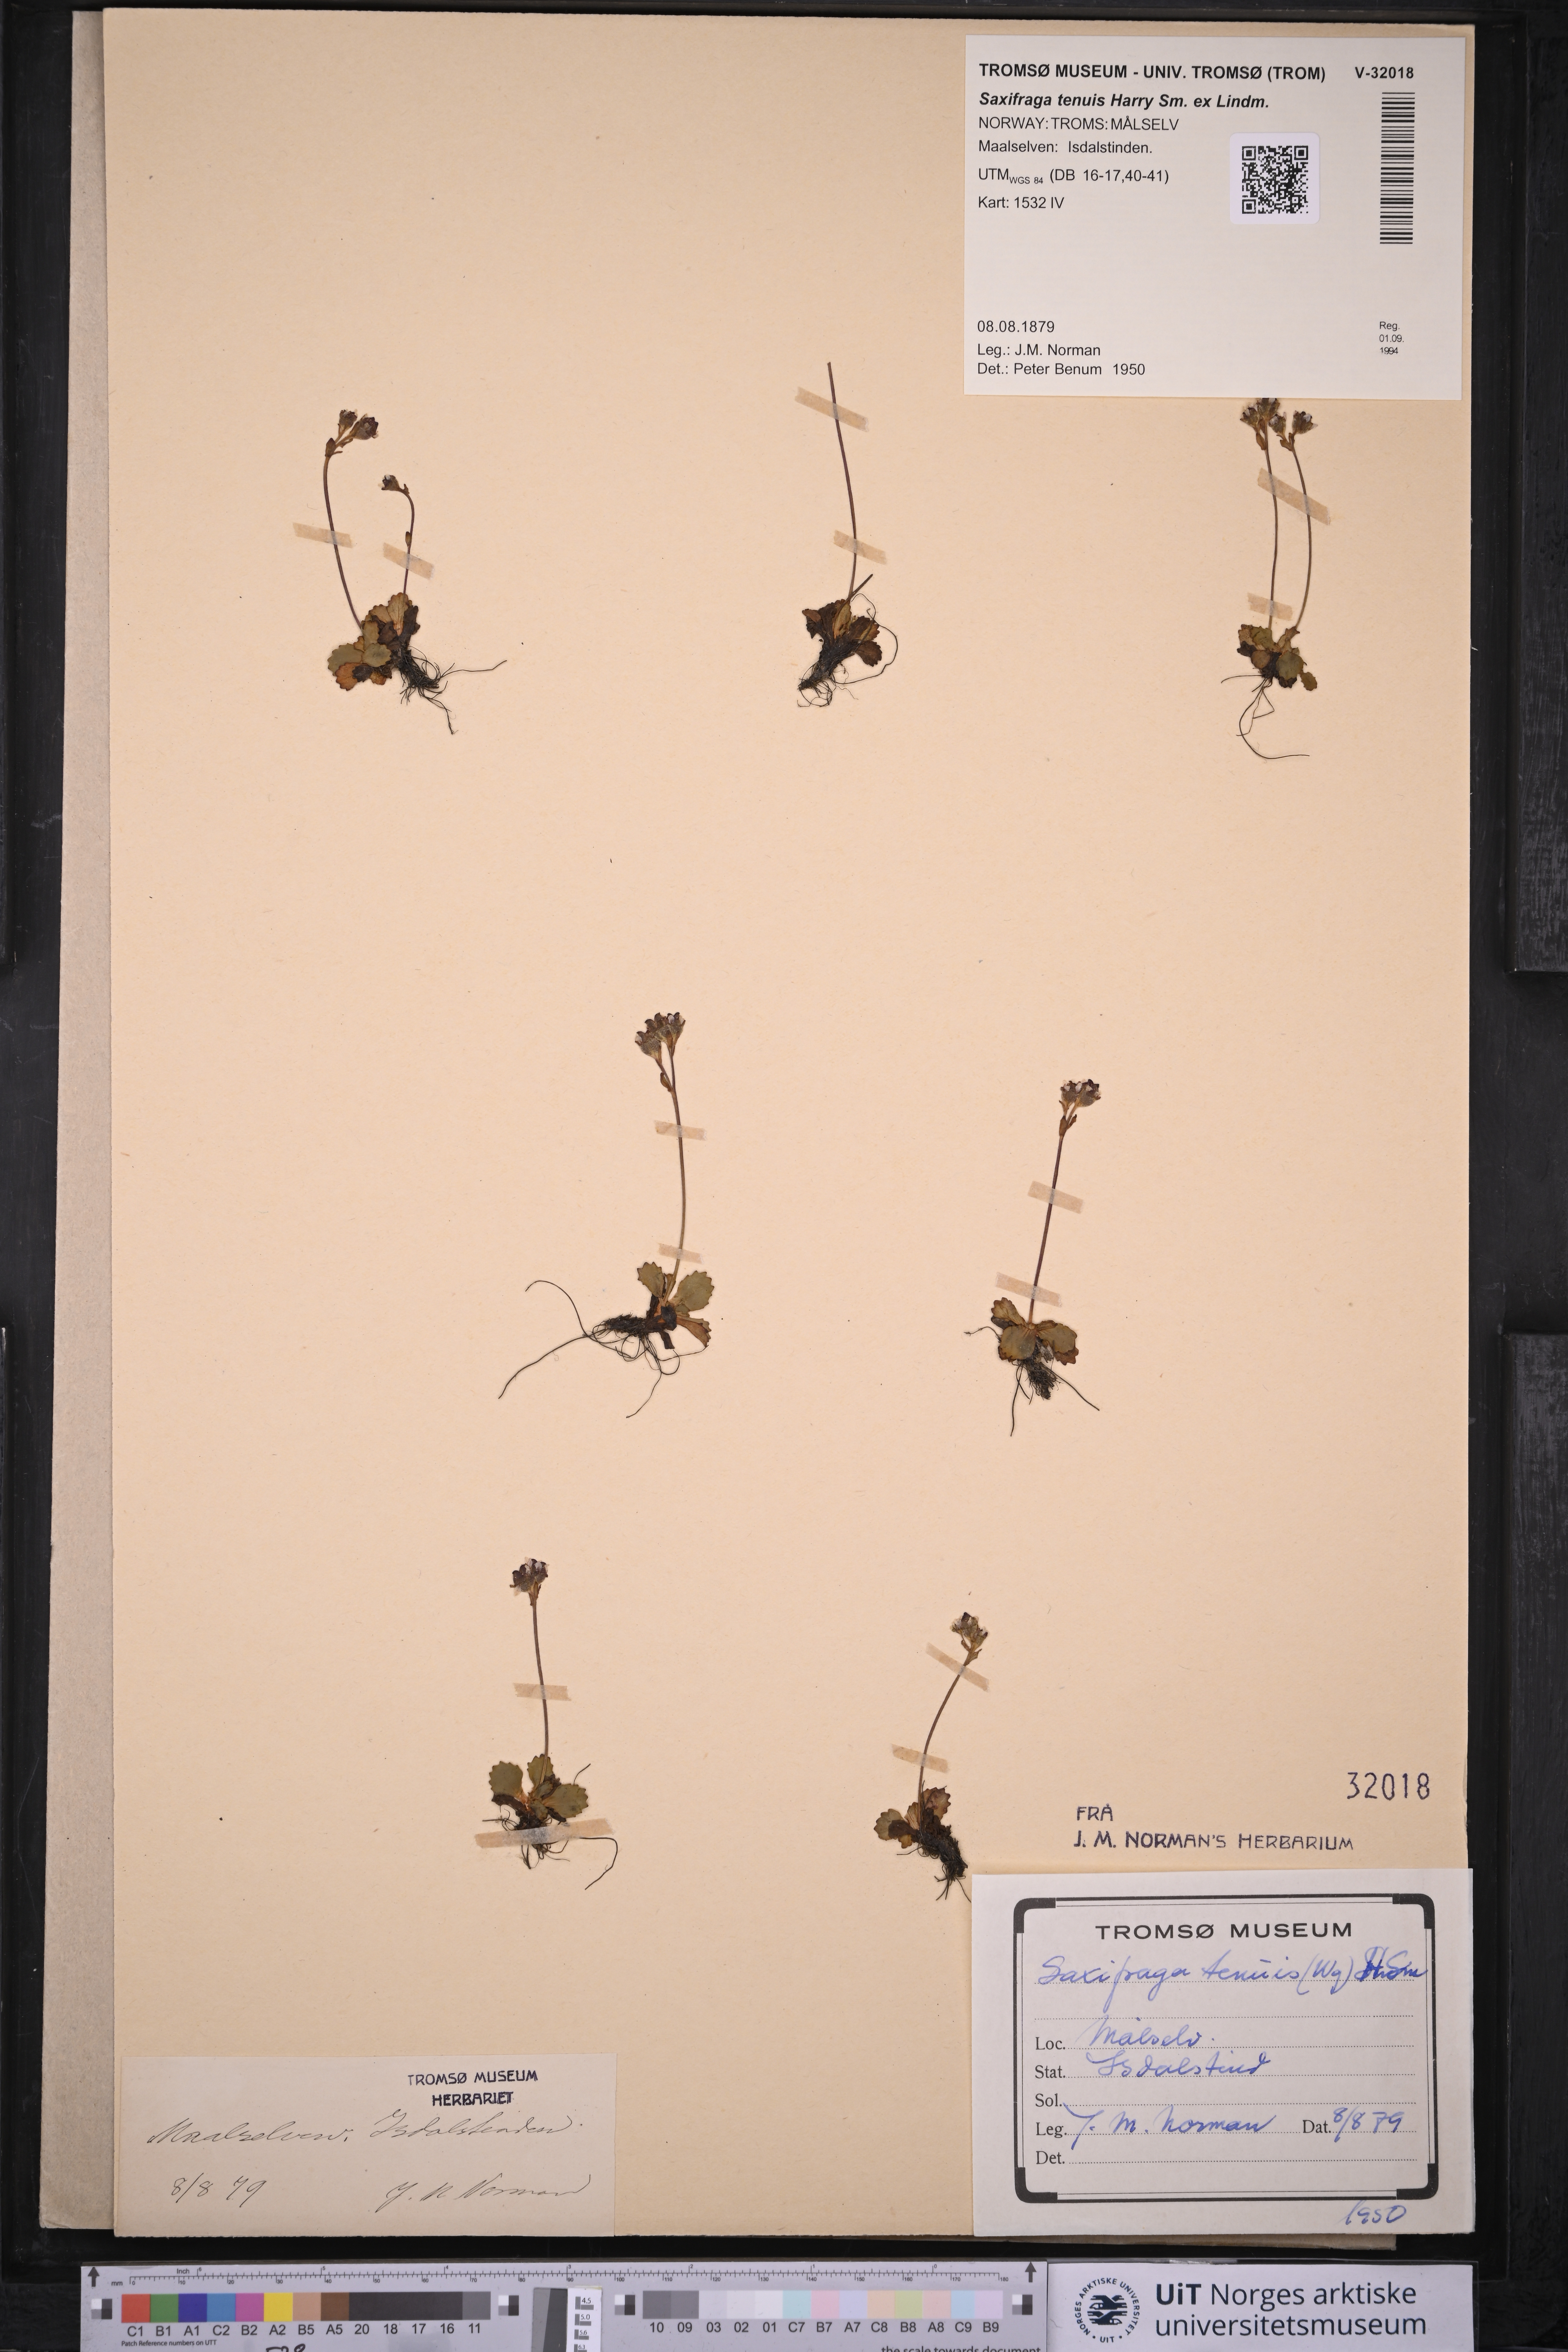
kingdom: Plantae
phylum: Tracheophyta
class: Magnoliopsida
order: Saxifragales
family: Saxifragaceae
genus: Micranthes
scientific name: Micranthes tenuis
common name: Ottertail pass saxifrage
